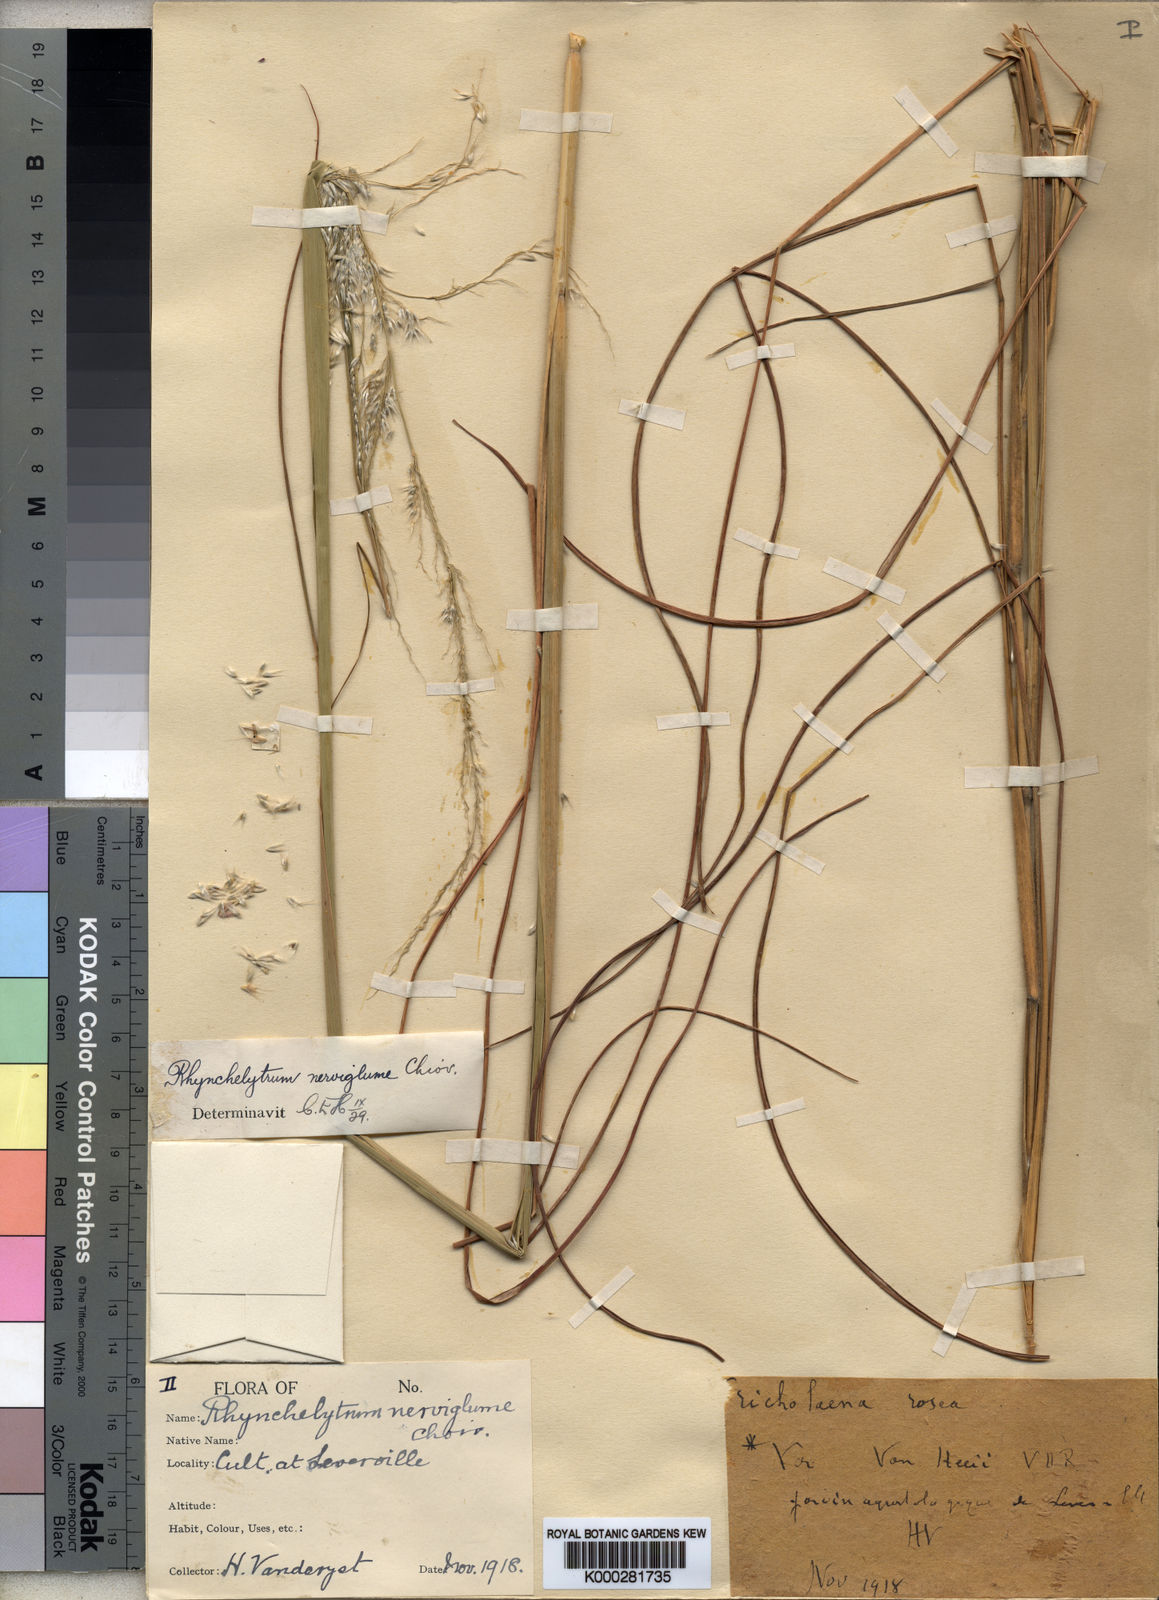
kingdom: Plantae
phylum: Tracheophyta
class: Liliopsida
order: Poales
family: Poaceae
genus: Melinis
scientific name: Melinis nerviglumis
